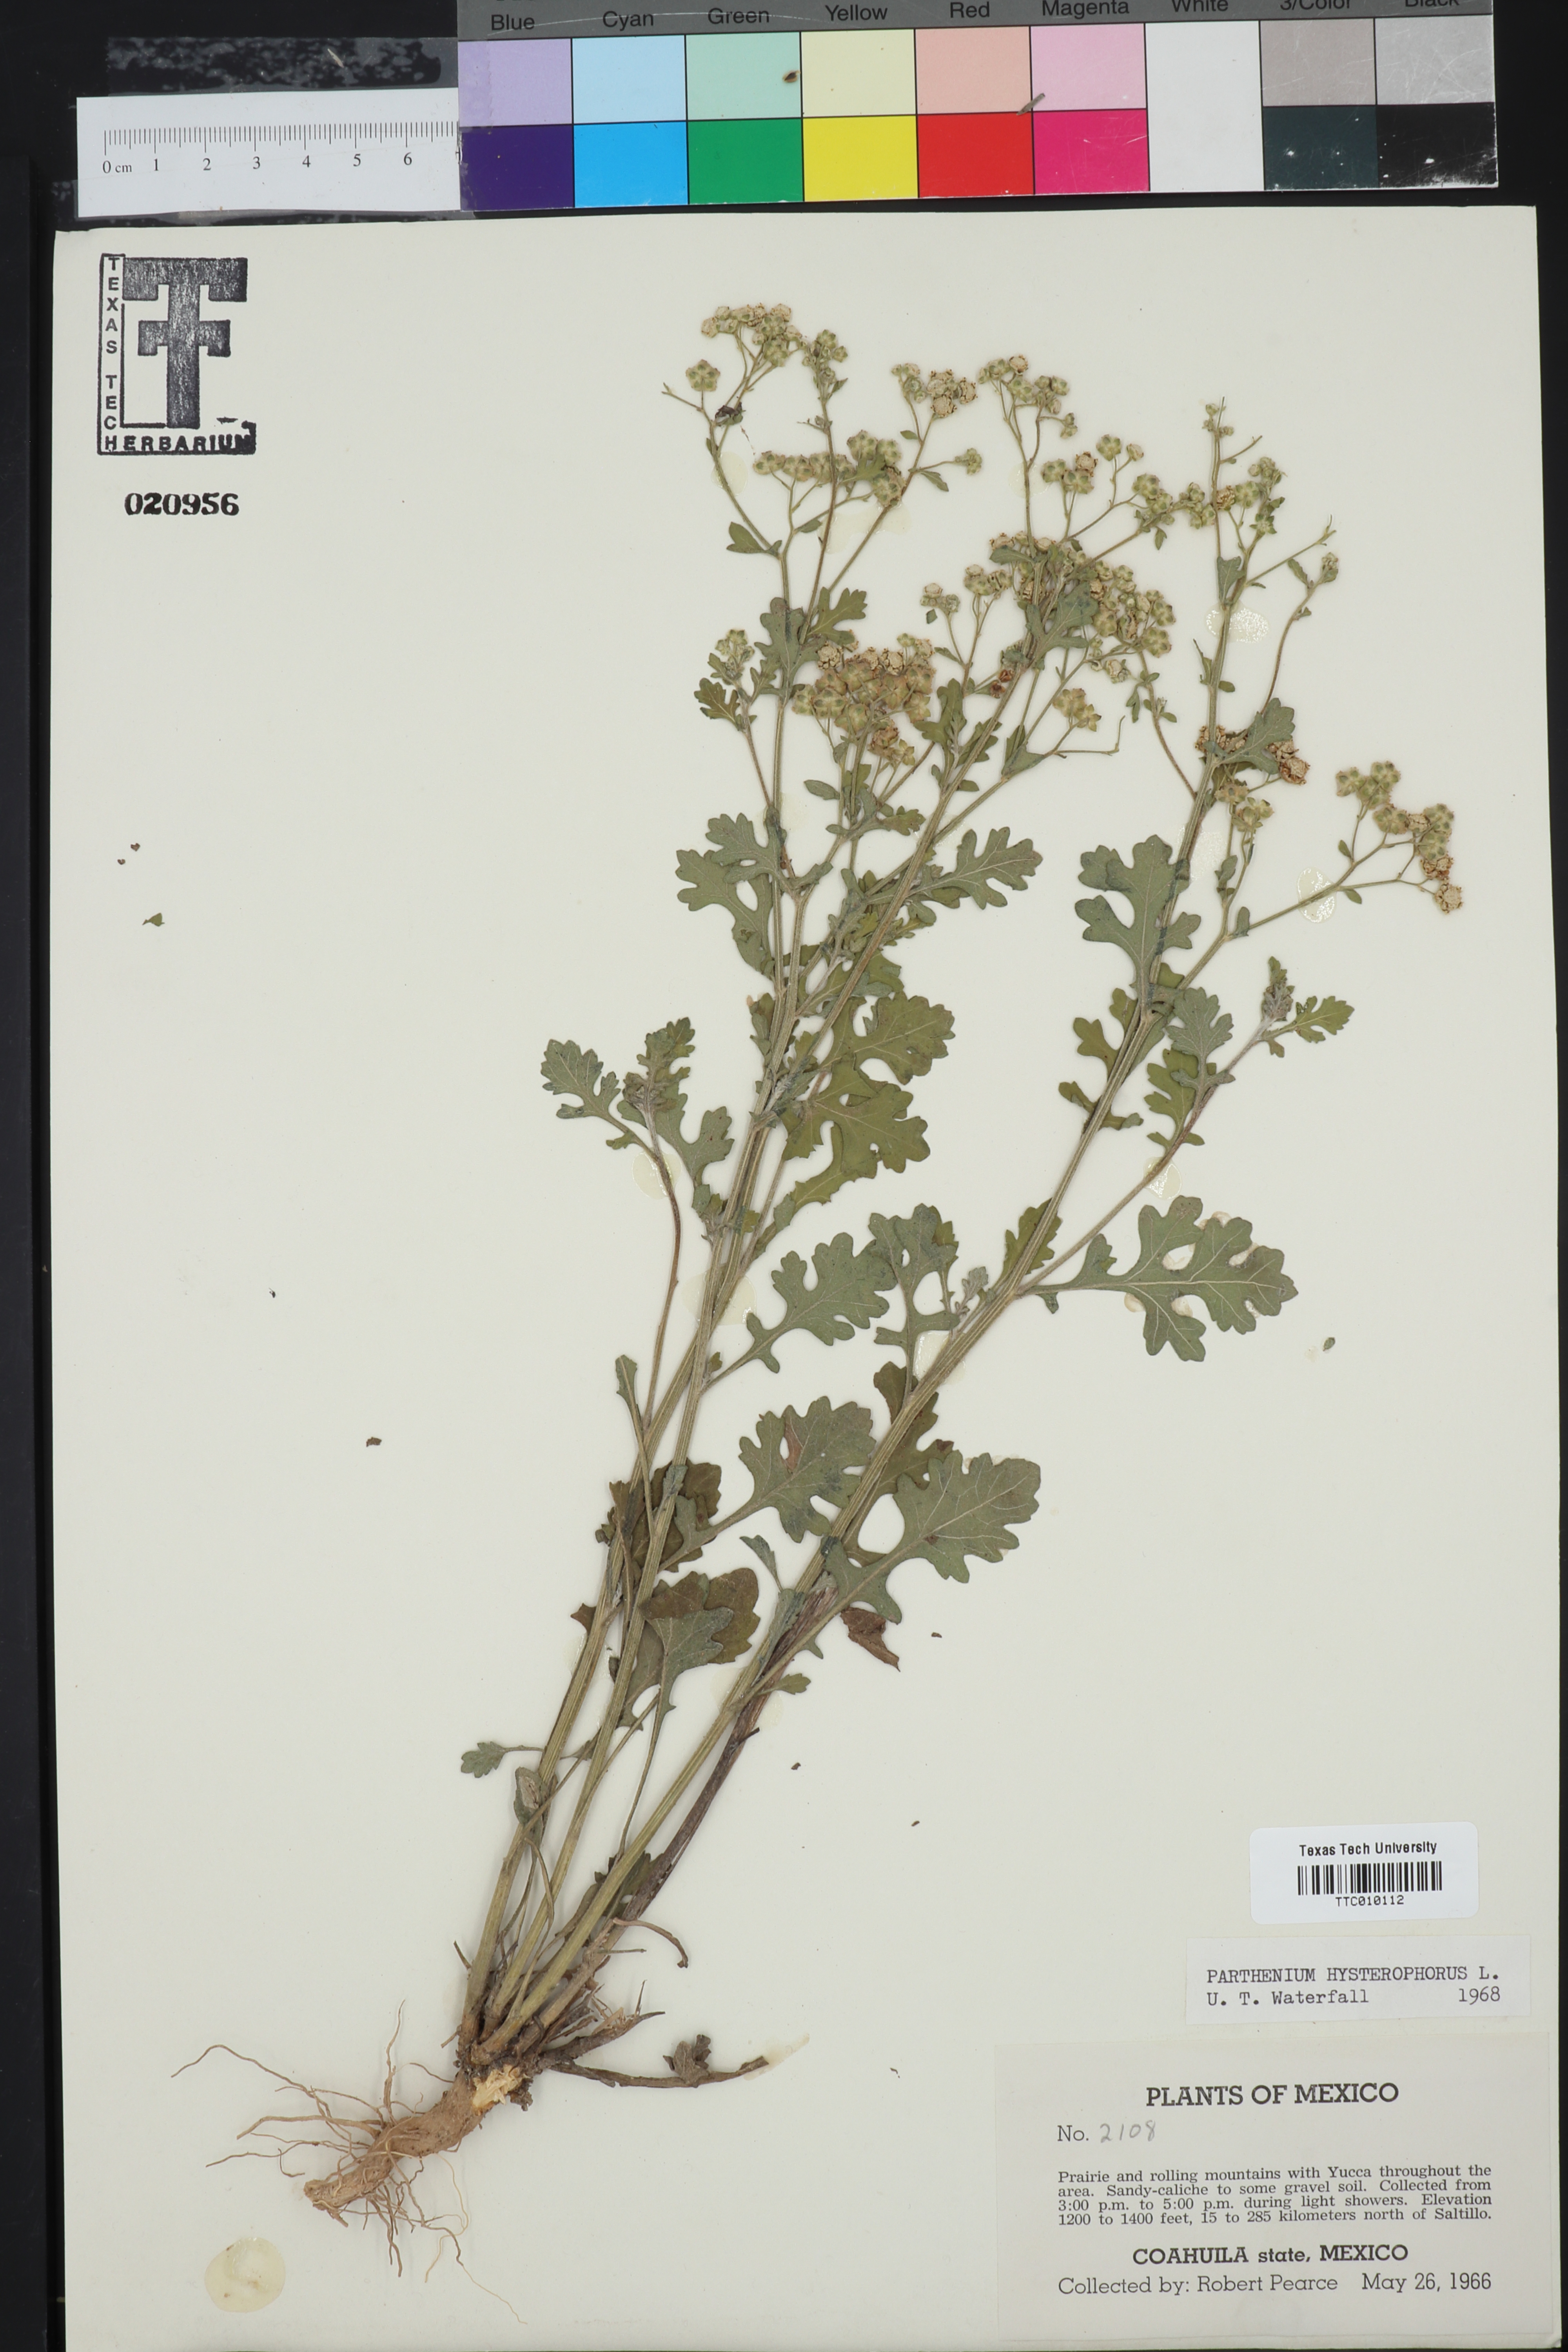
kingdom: Plantae
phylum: Tracheophyta
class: Magnoliopsida
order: Asterales
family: Asteraceae
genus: Parthenium
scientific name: Parthenium hysterophorus
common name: Santa maria feverfew
